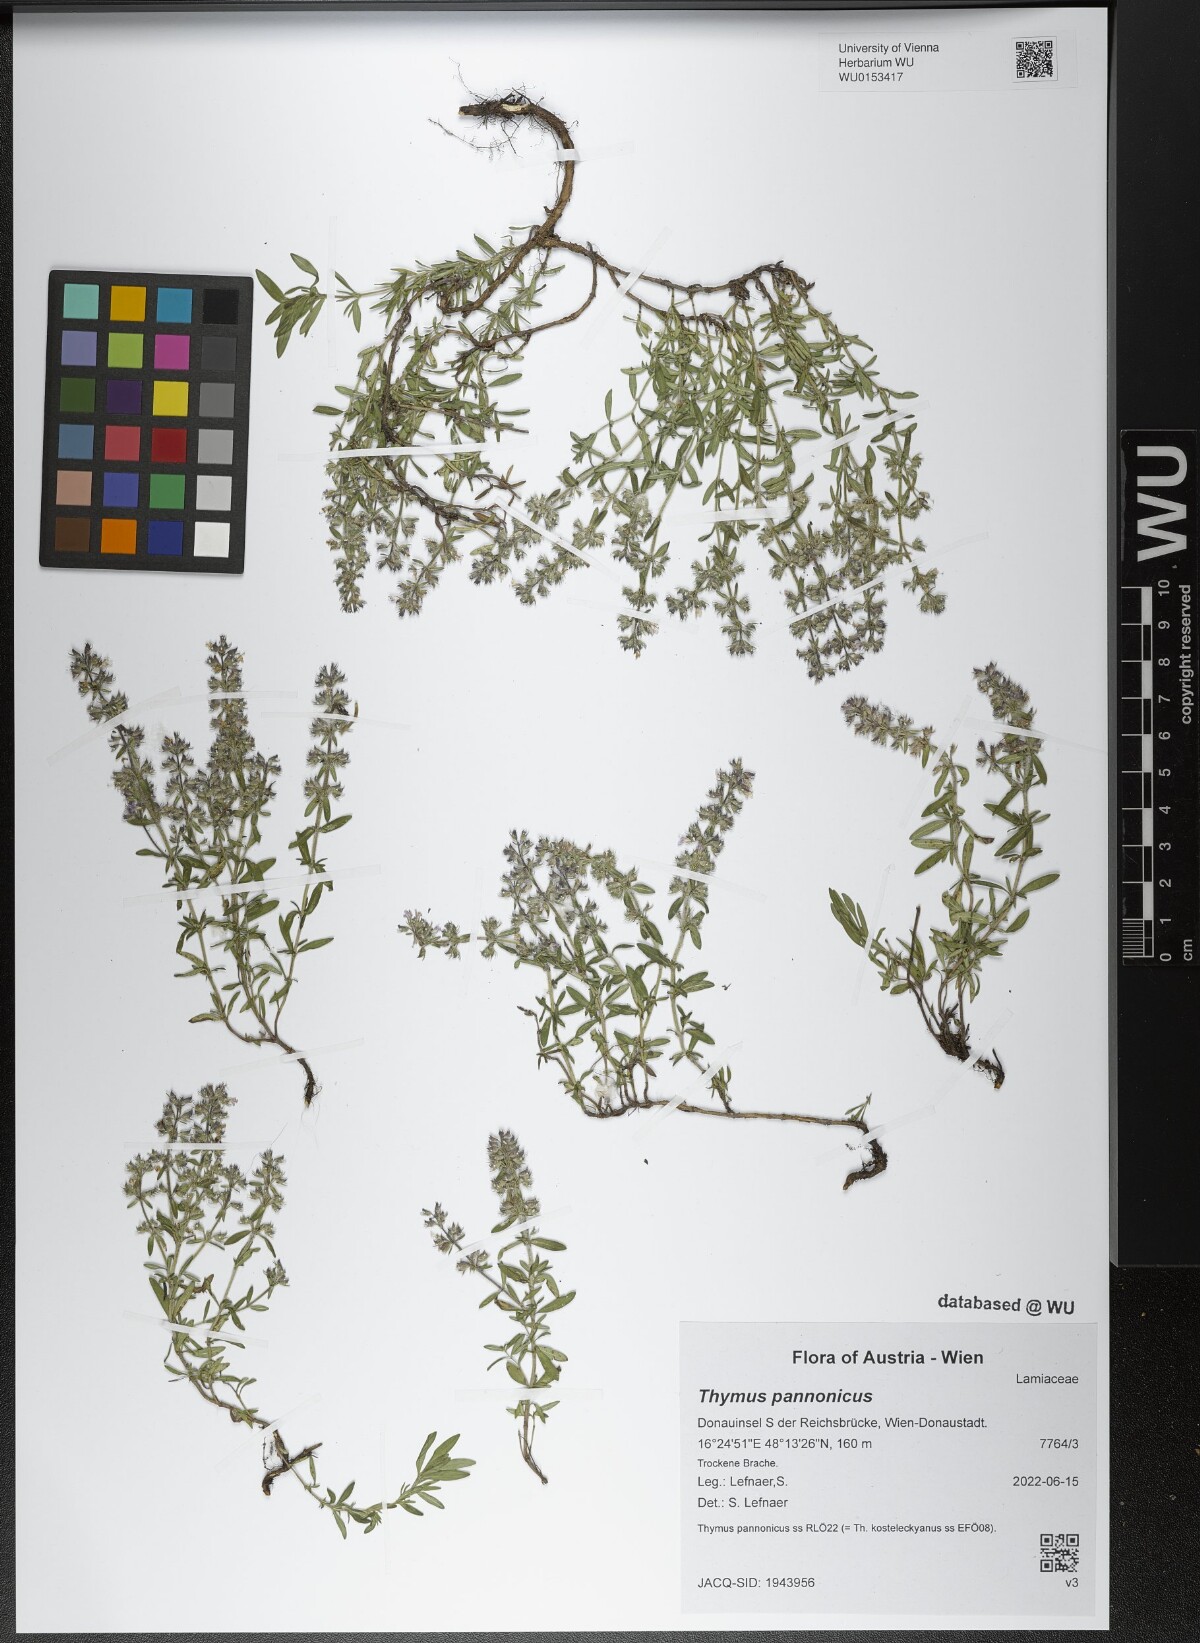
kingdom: Plantae
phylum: Tracheophyta
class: Magnoliopsida
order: Lamiales
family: Lamiaceae
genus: Thymus
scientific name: Thymus pannonicus
